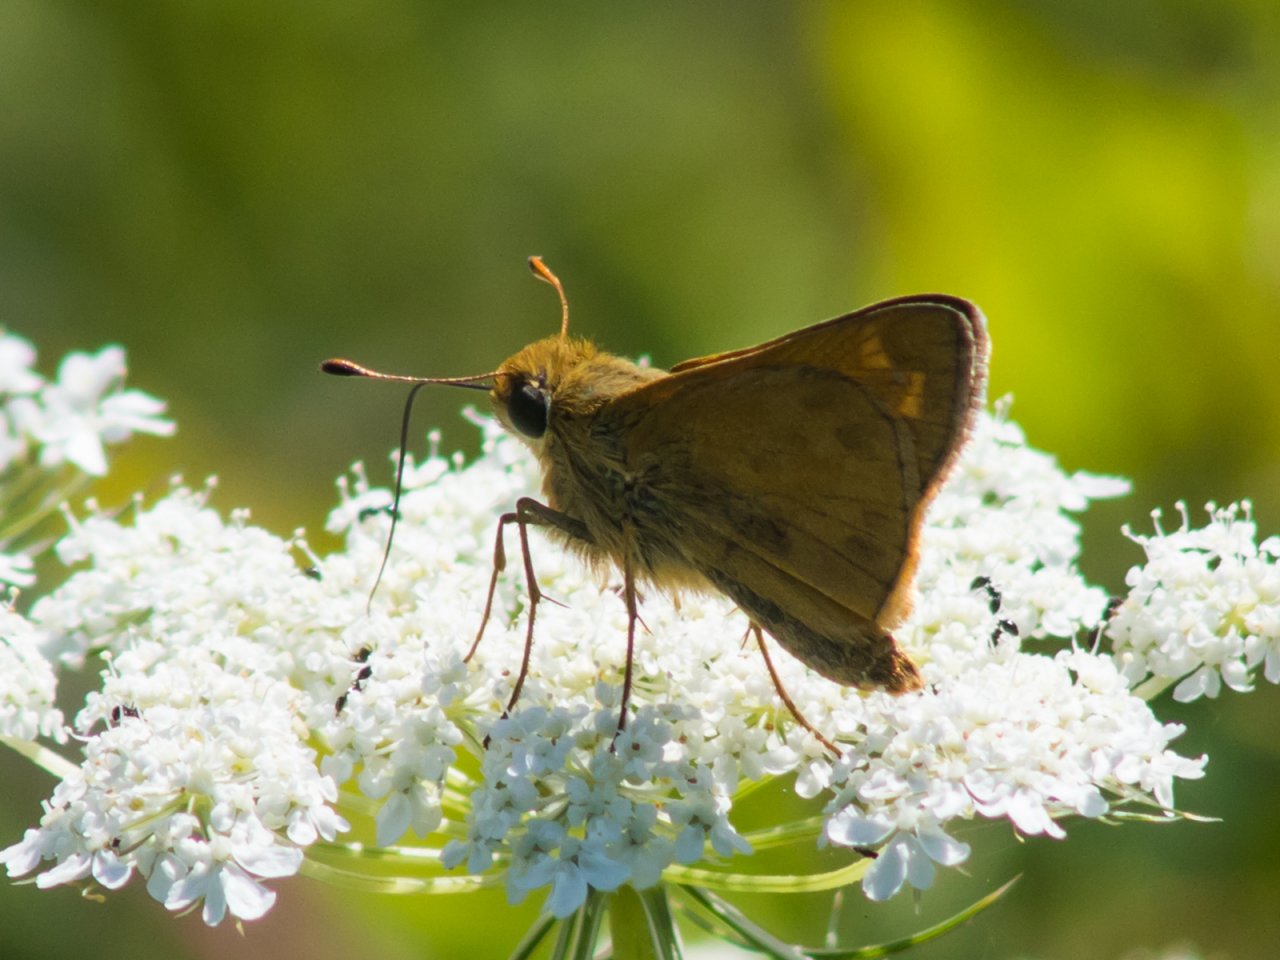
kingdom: Animalia
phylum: Arthropoda
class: Insecta
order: Lepidoptera
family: Hesperiidae
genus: Atalopedes
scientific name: Atalopedes campestris
